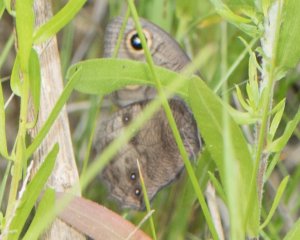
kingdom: Animalia
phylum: Arthropoda
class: Insecta
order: Lepidoptera
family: Nymphalidae
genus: Cercyonis
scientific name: Cercyonis pegala
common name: Common Wood-Nymph
